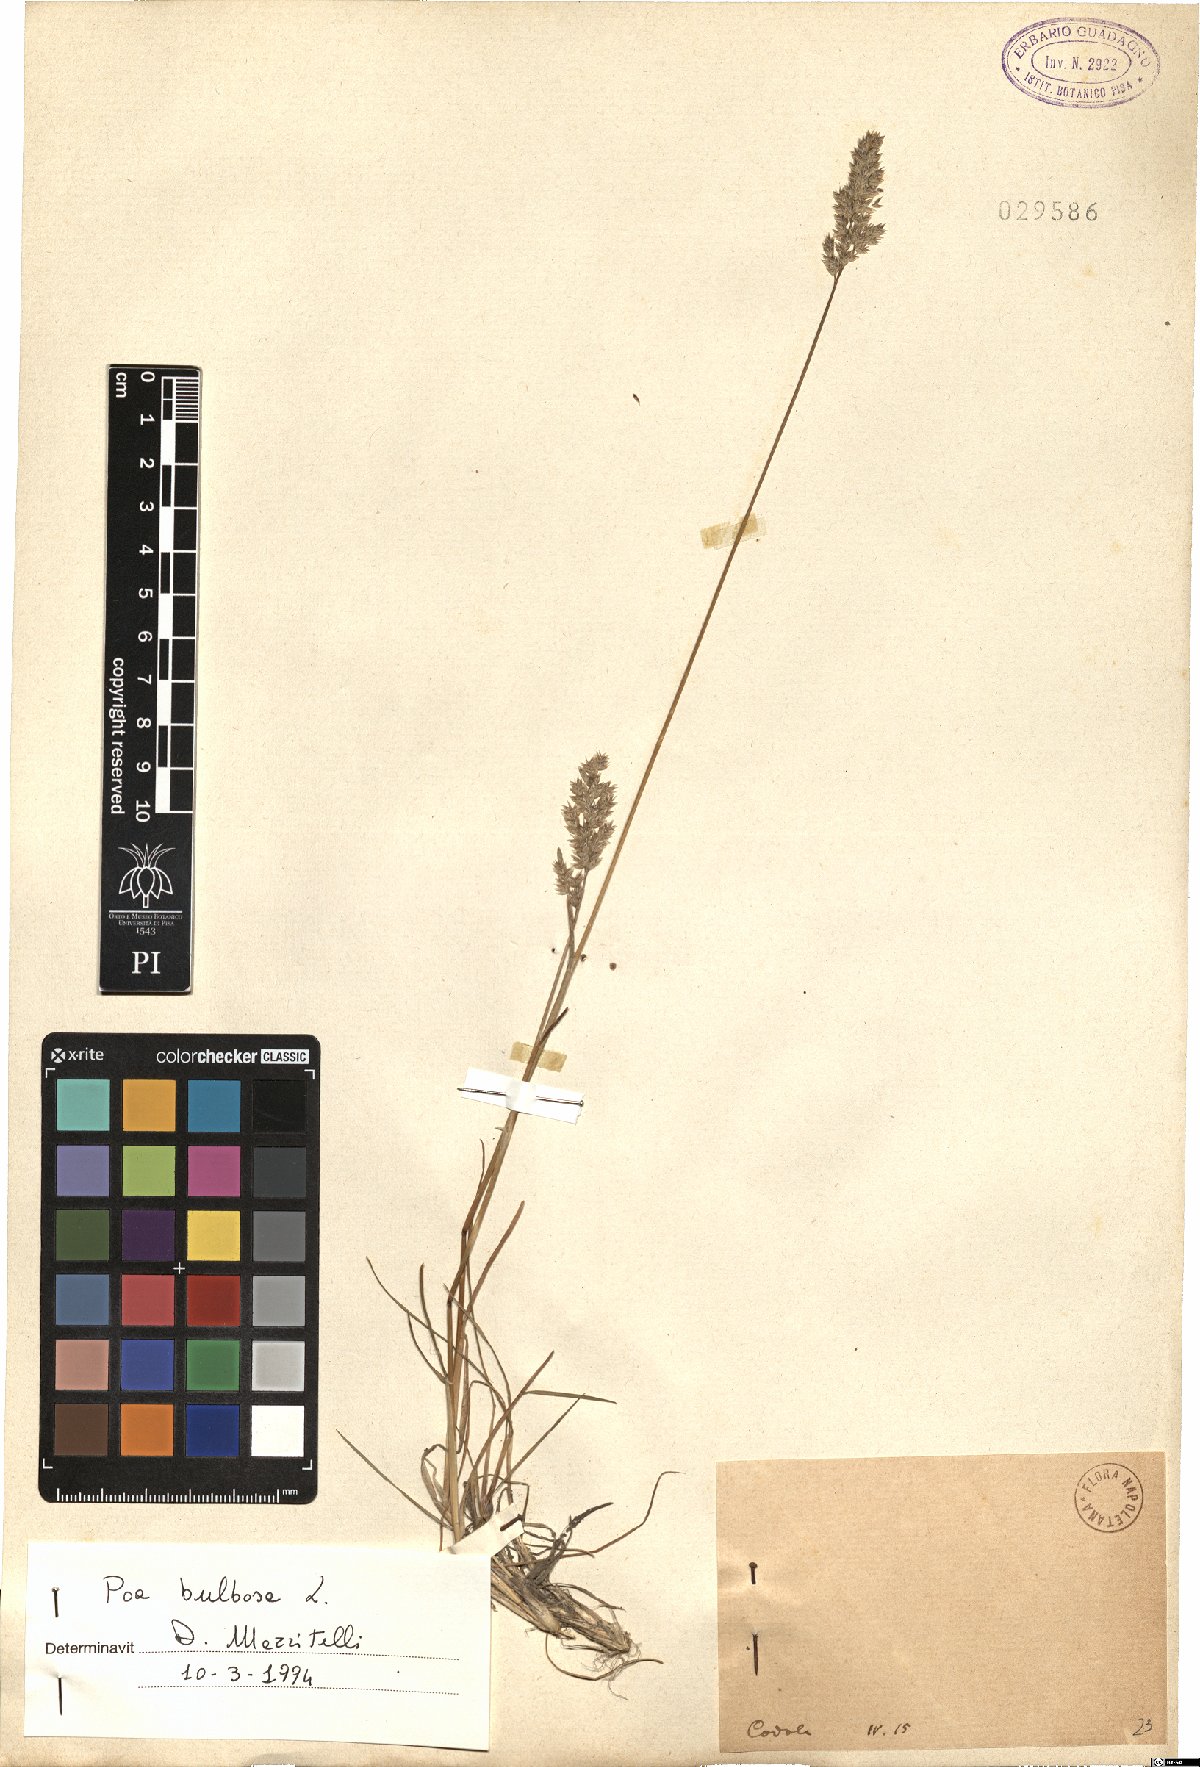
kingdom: Plantae
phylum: Tracheophyta
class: Liliopsida
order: Poales
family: Poaceae
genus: Poa
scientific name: Poa bulbosa
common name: Bulbous bluegrass
